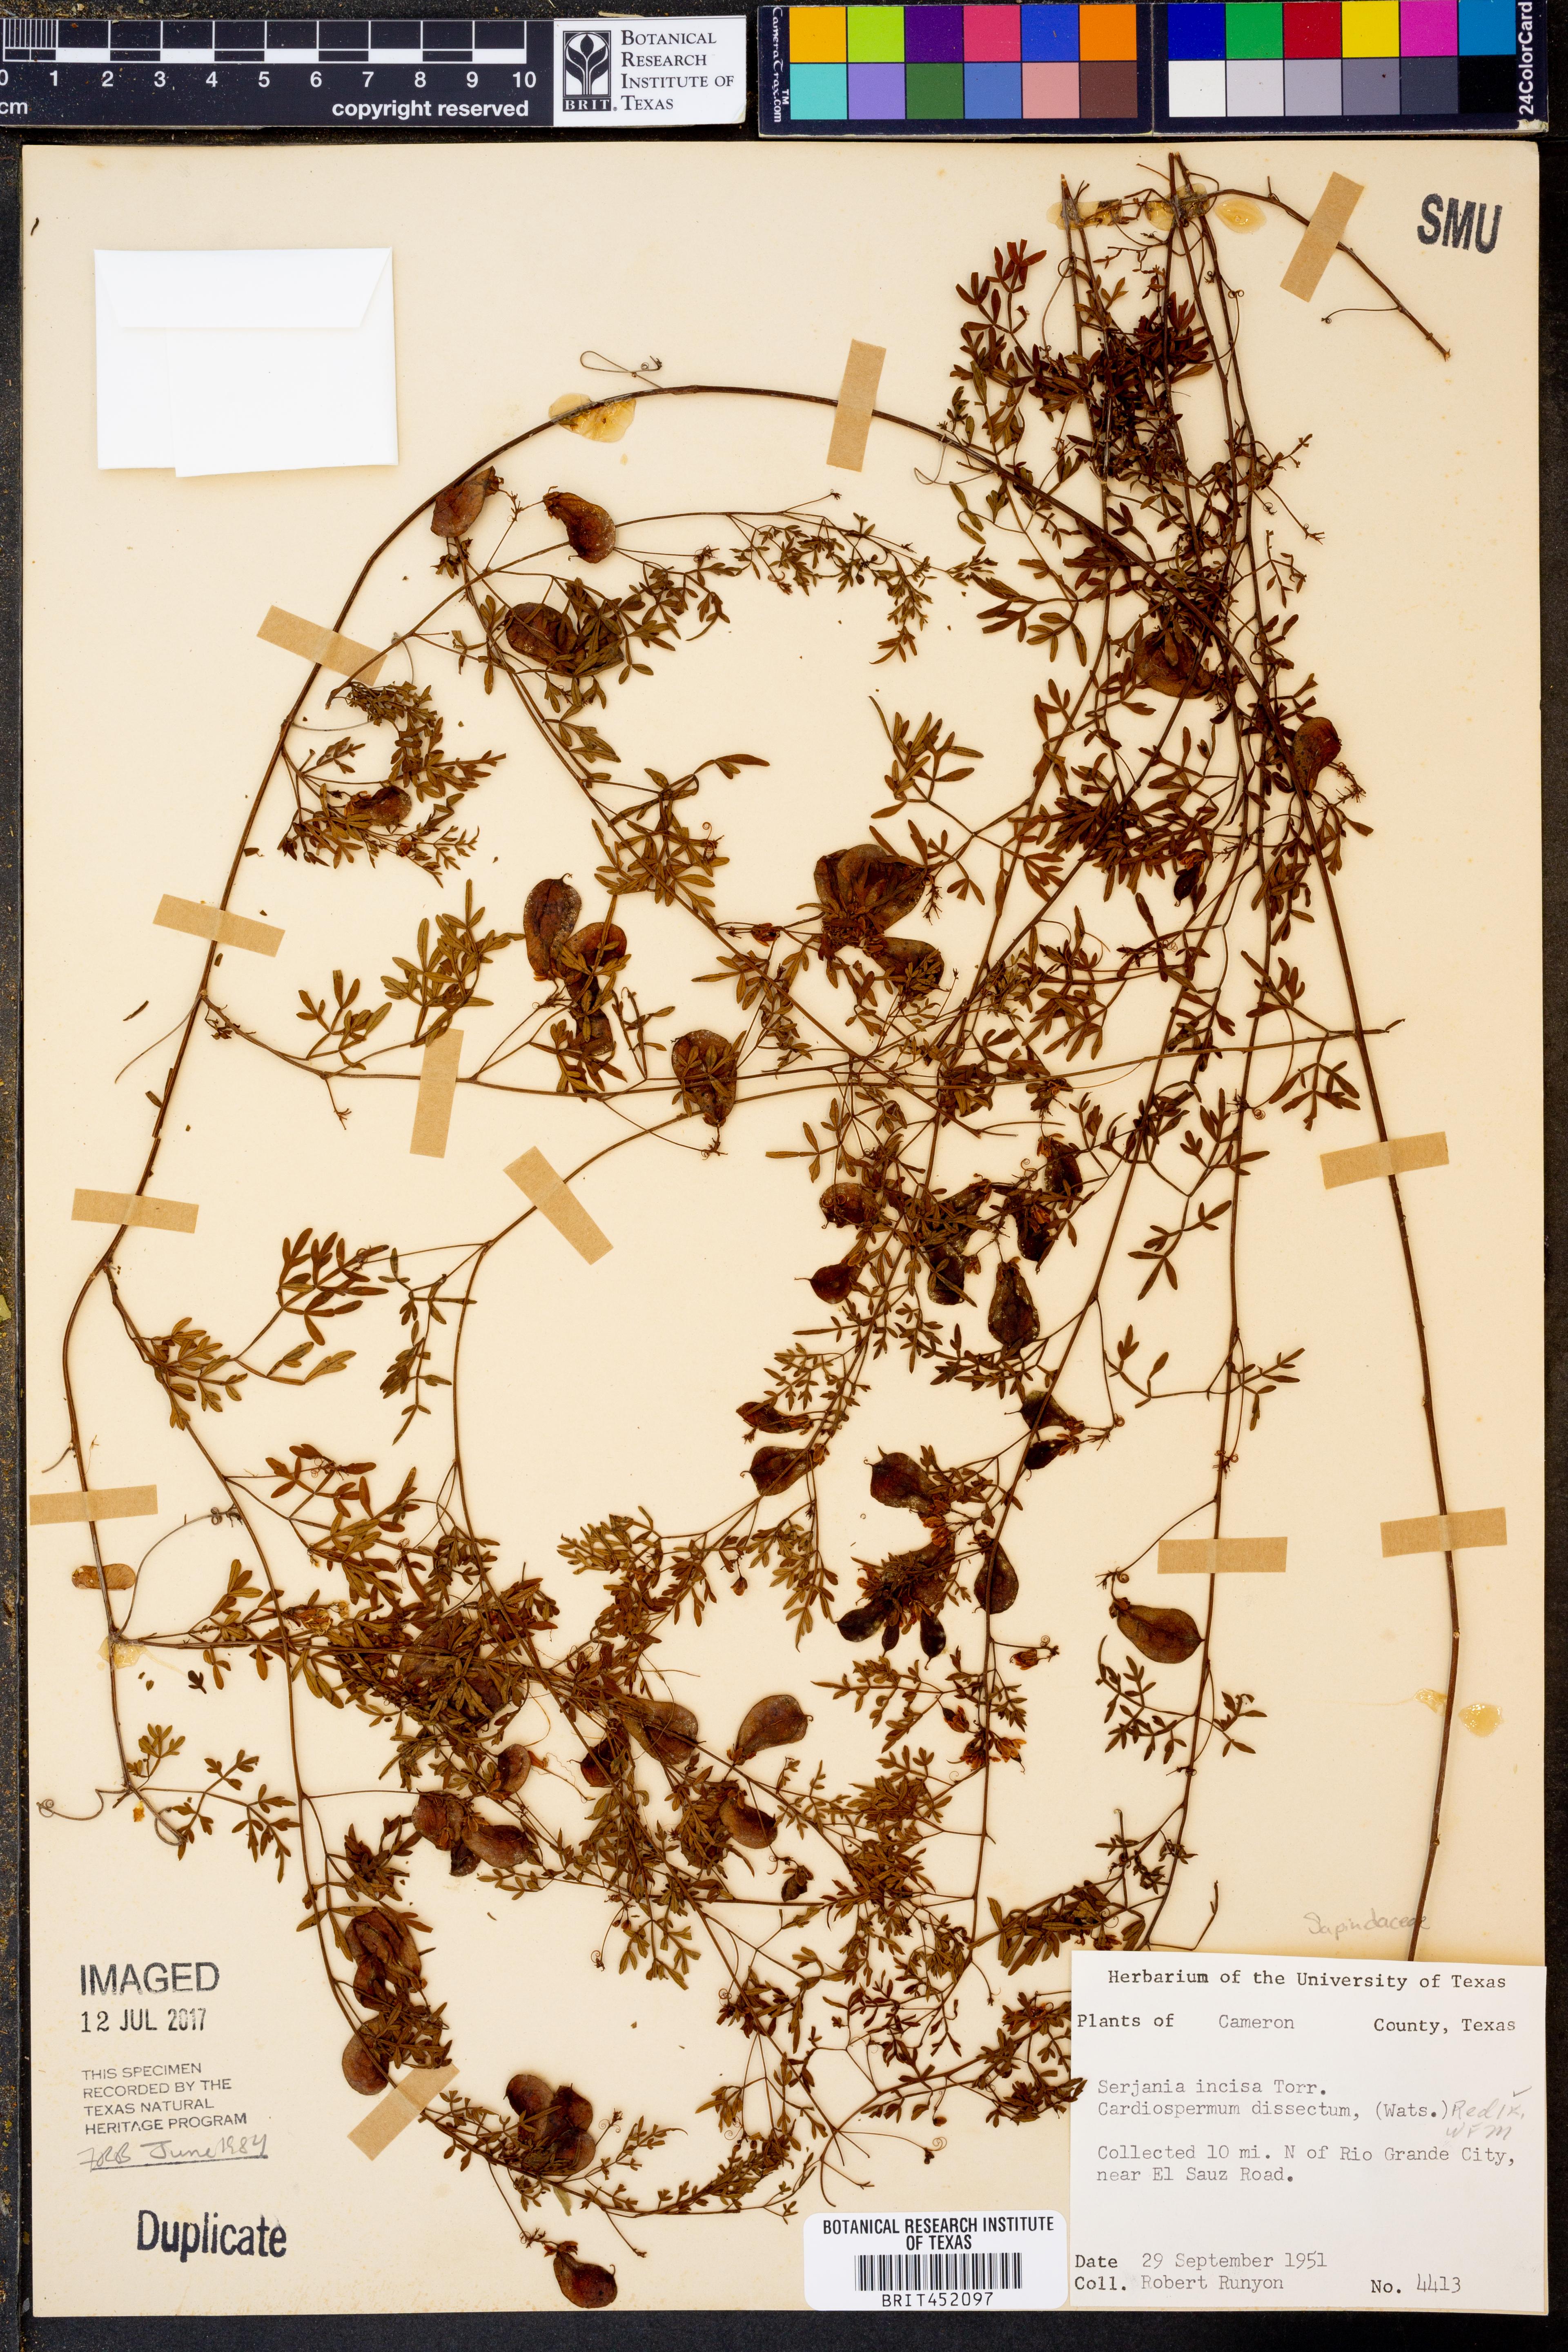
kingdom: Plantae
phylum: Tracheophyta
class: Magnoliopsida
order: Sapindales
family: Sapindaceae
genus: Serjania
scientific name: Serjania incisa
